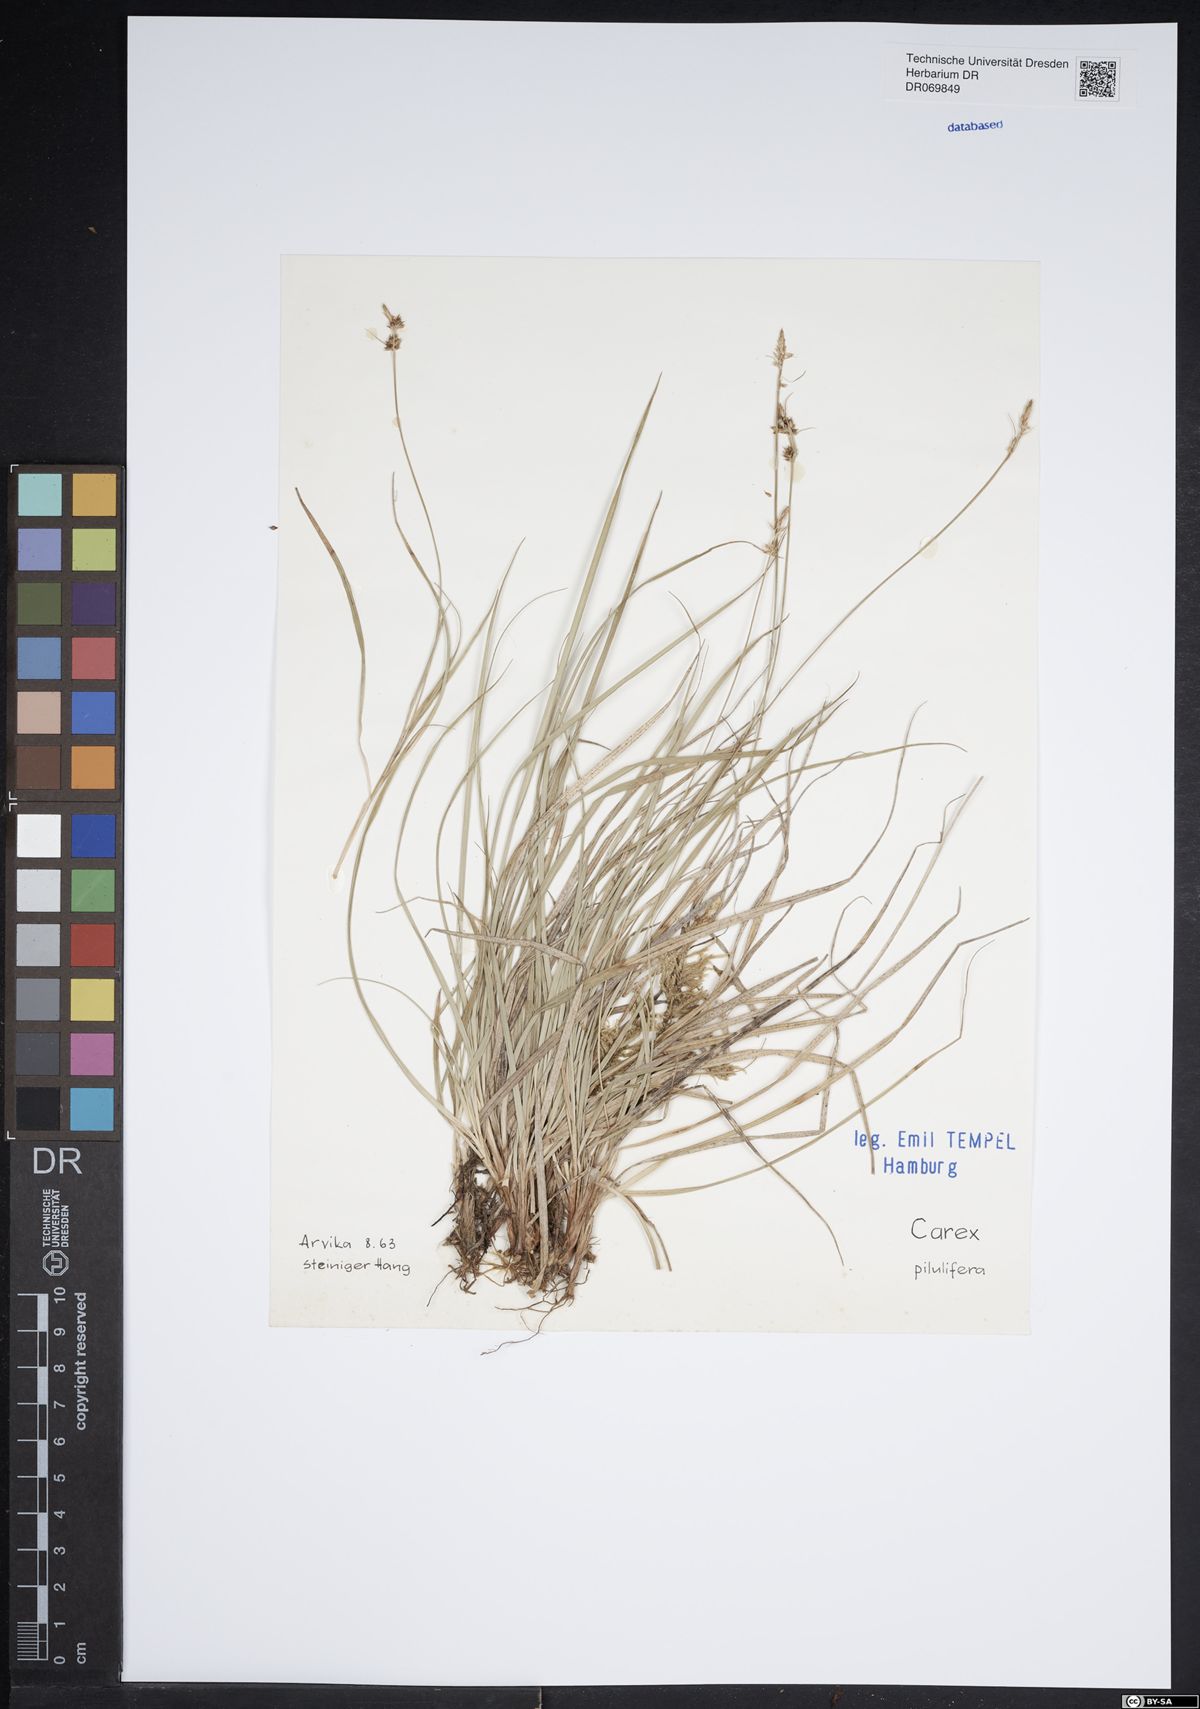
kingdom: Plantae
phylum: Tracheophyta
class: Liliopsida
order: Poales
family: Cyperaceae
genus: Carex
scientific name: Carex pilulifera
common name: Pill sedge
